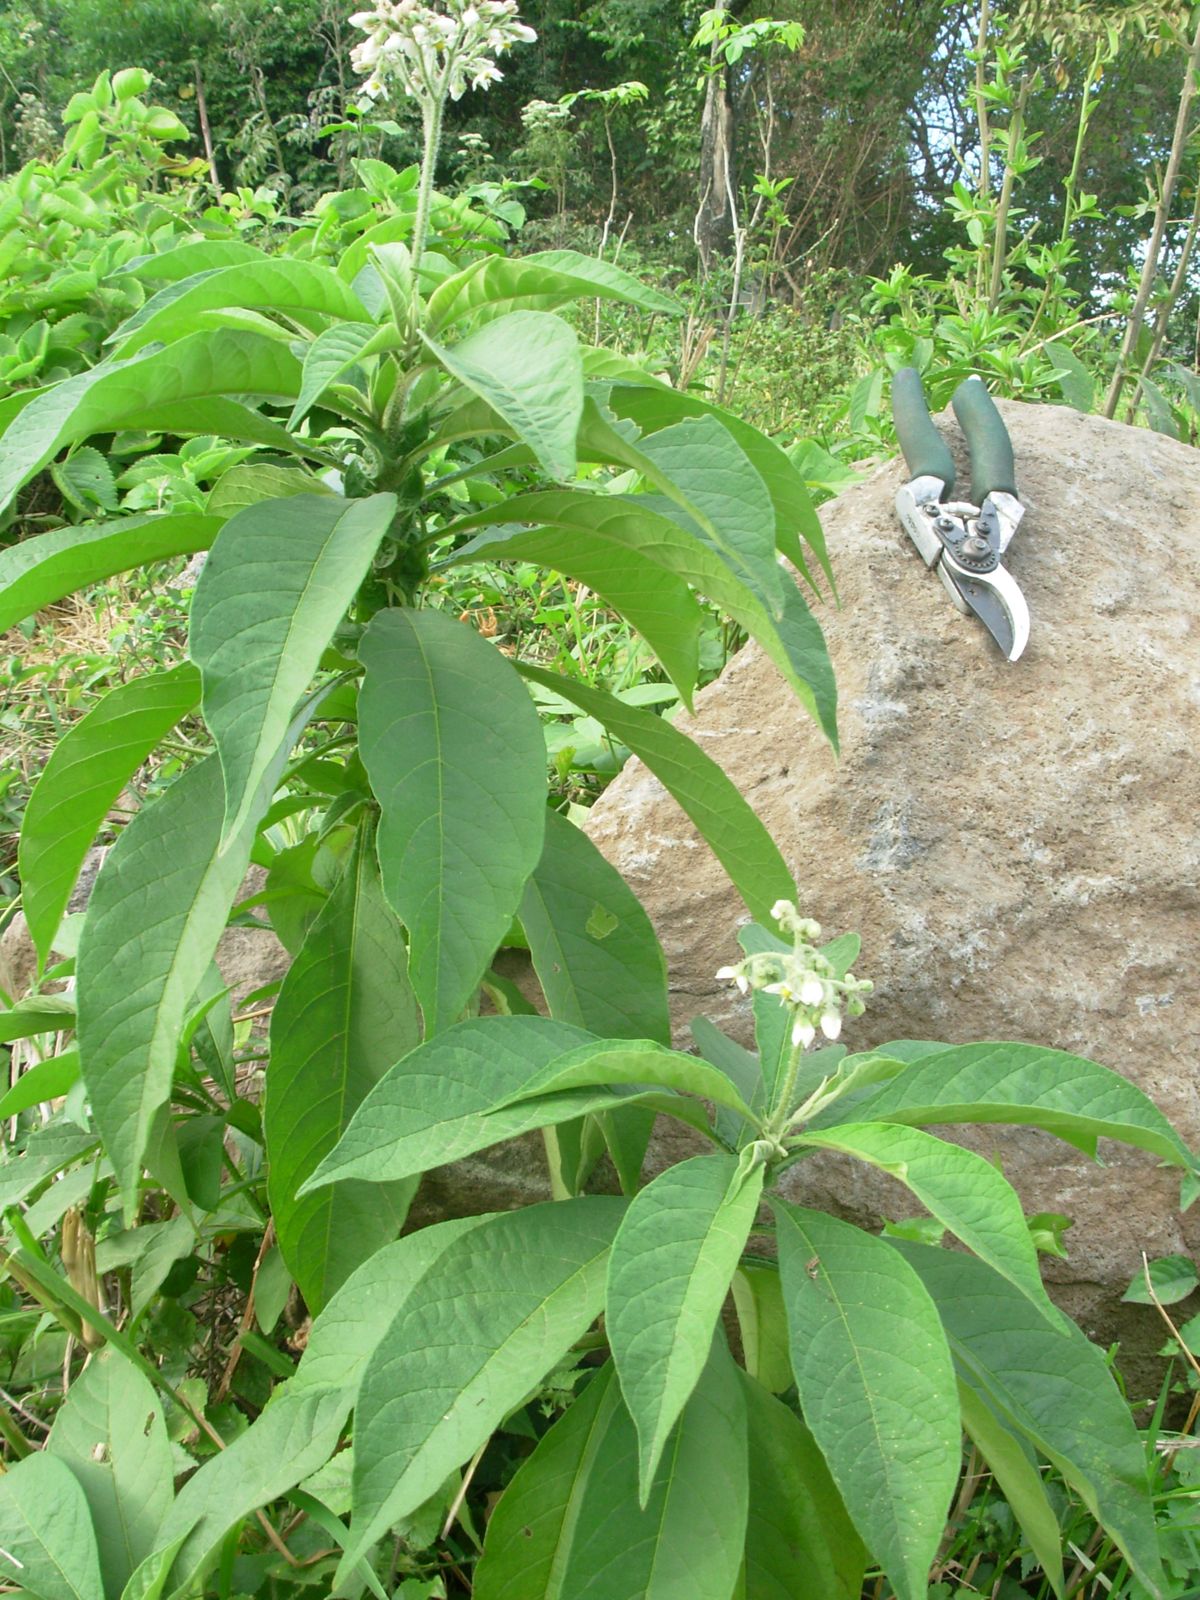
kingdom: Plantae
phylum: Tracheophyta
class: Magnoliopsida
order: Solanales
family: Solanaceae
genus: Solanum
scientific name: Solanum umbellatum
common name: Nightshade
